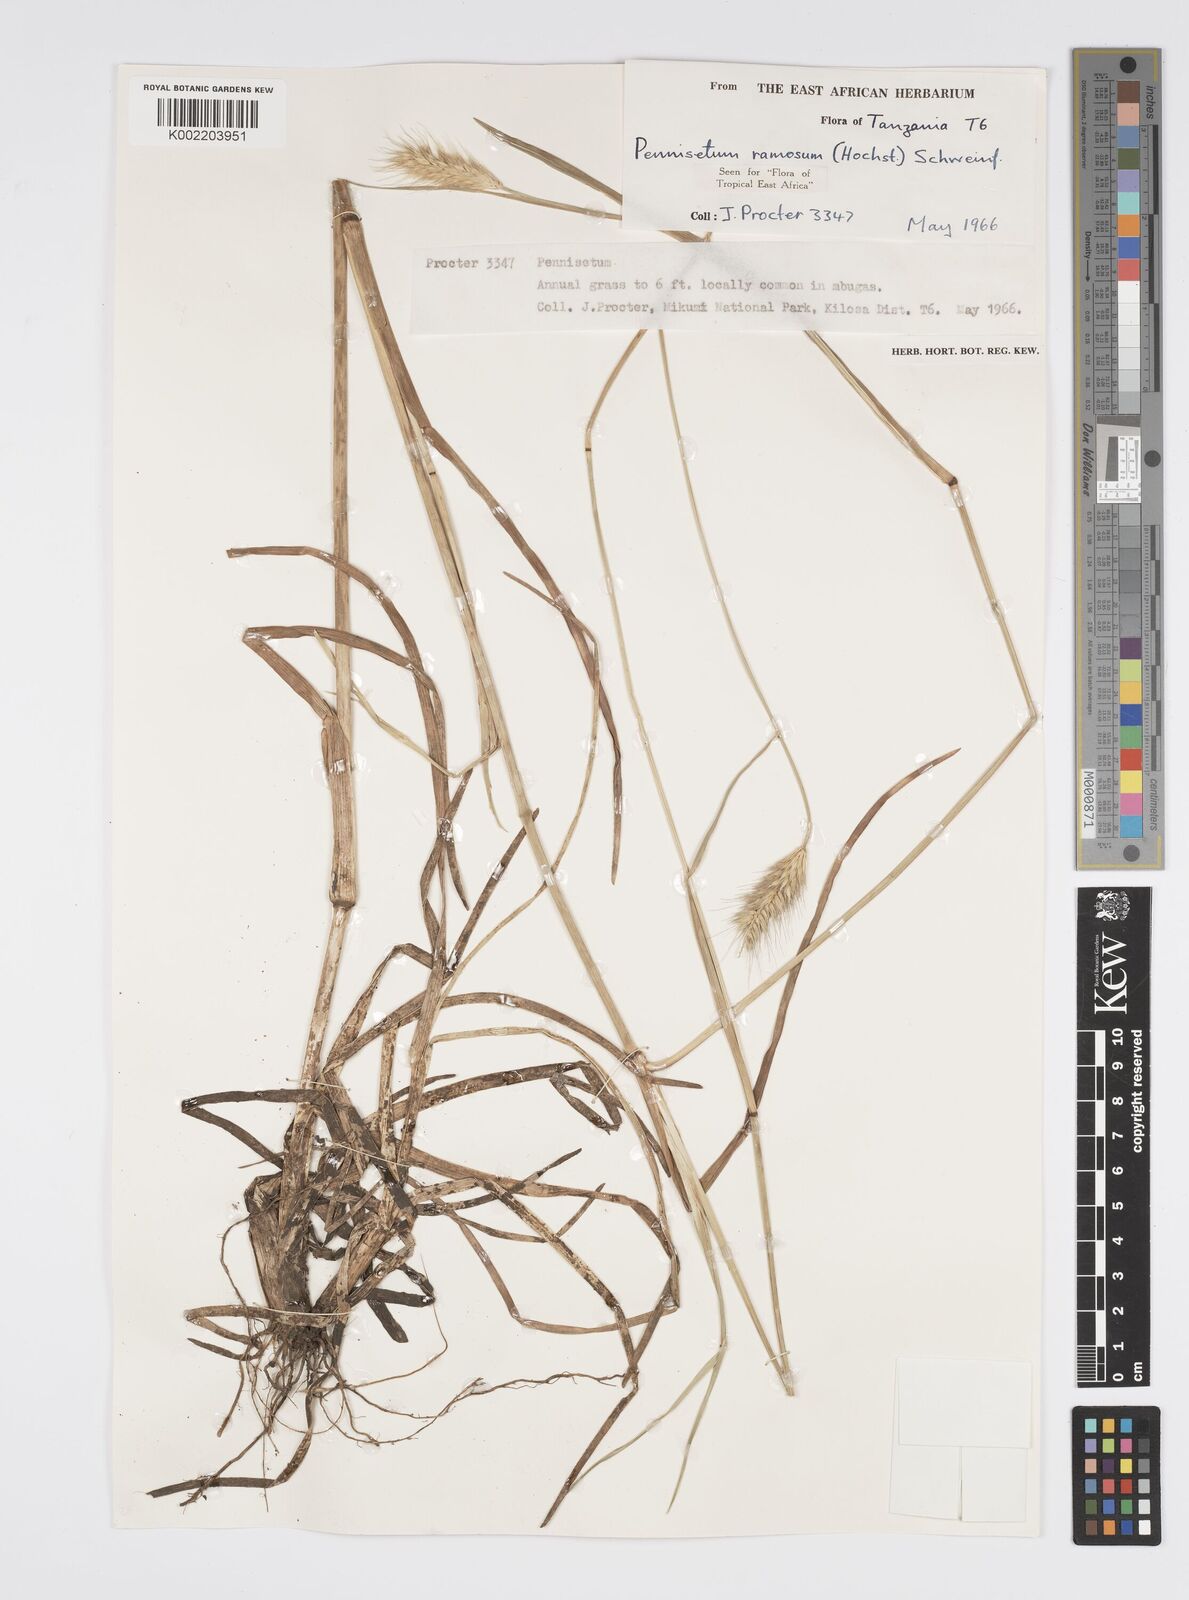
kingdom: Plantae
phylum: Tracheophyta
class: Liliopsida
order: Poales
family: Poaceae
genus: Cenchrus
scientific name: Cenchrus ramosus
